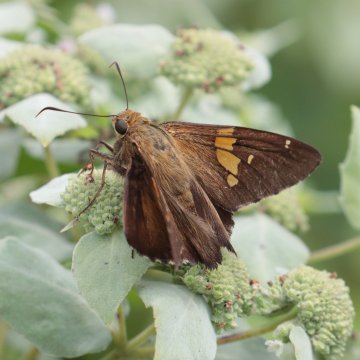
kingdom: Animalia
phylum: Arthropoda
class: Insecta
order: Lepidoptera
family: Hesperiidae
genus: Epargyreus
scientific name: Epargyreus clarus
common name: Silver-spotted Skipper
